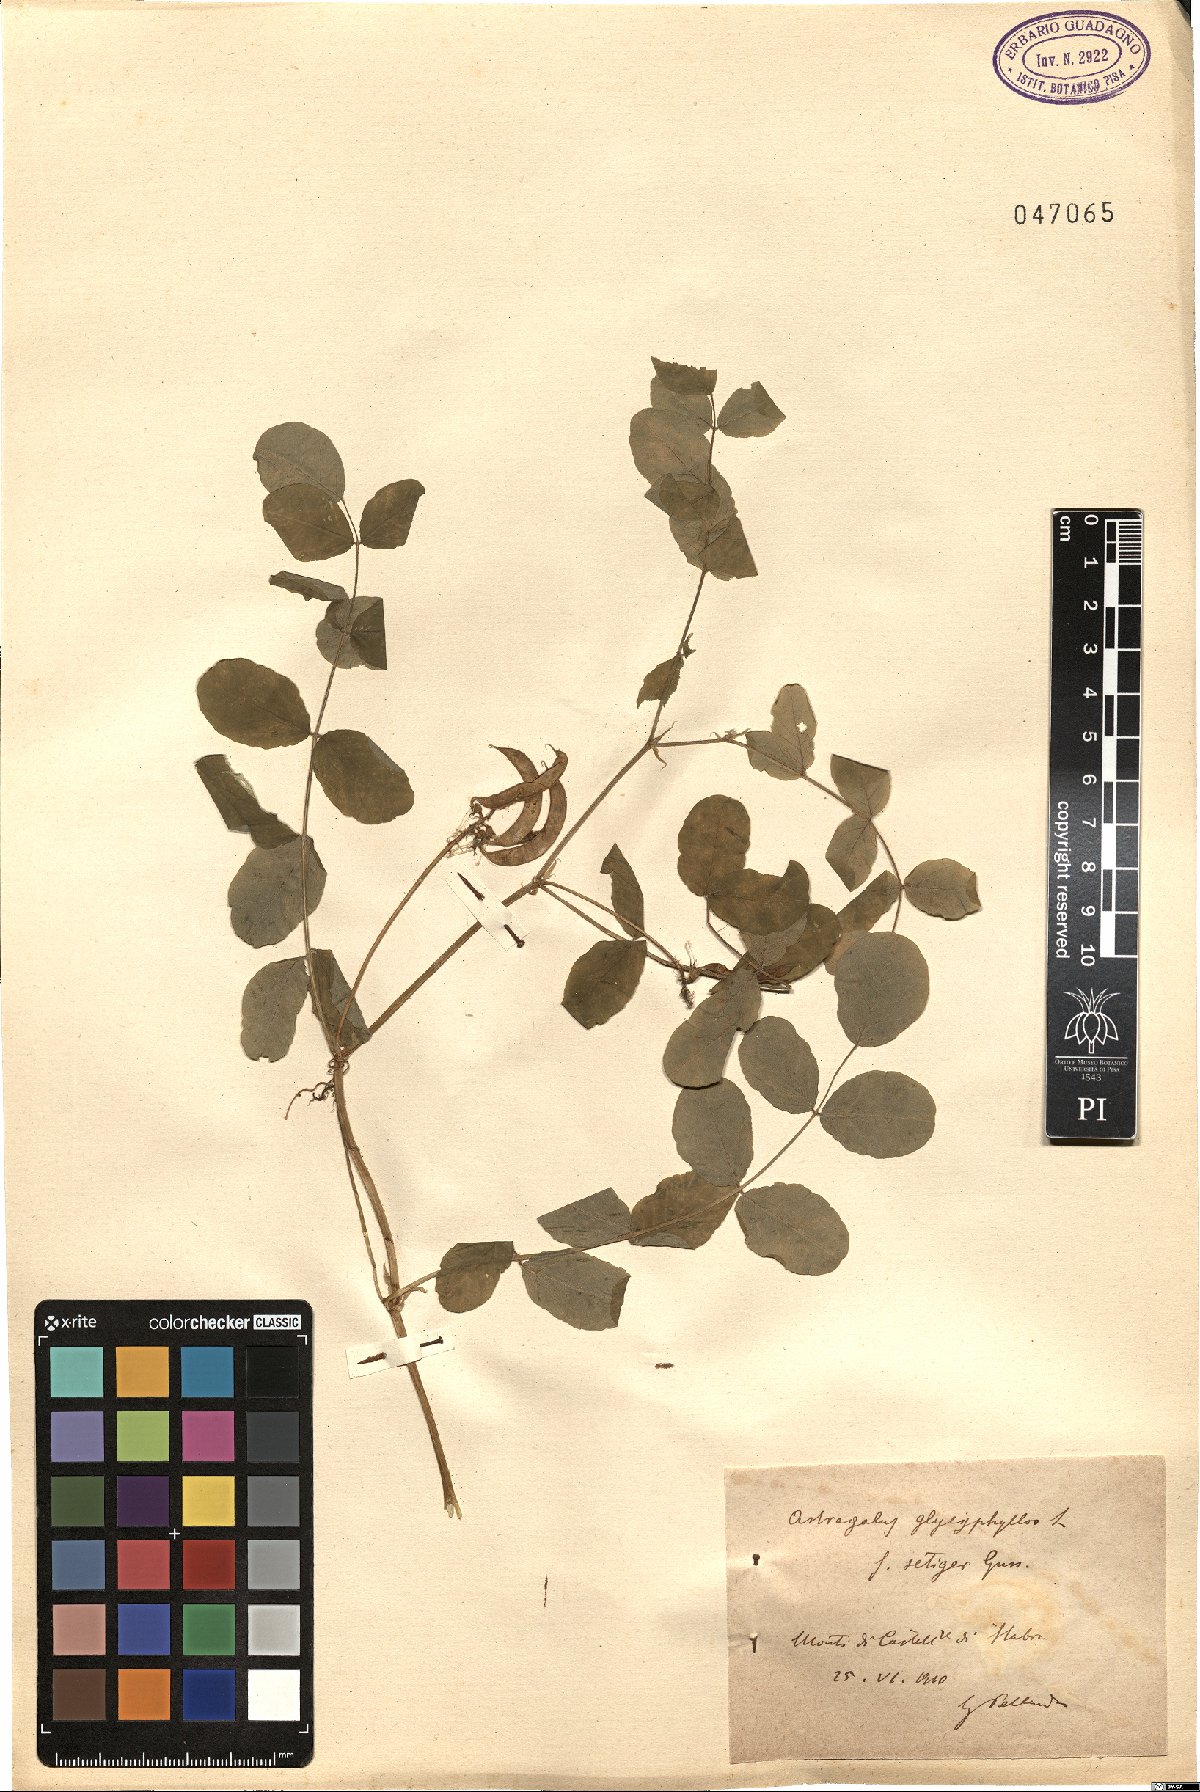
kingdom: Plantae
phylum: Tracheophyta
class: Magnoliopsida
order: Fabales
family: Fabaceae
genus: Astragalus
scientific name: Astragalus glycyphyllos
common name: Wild liquorice
